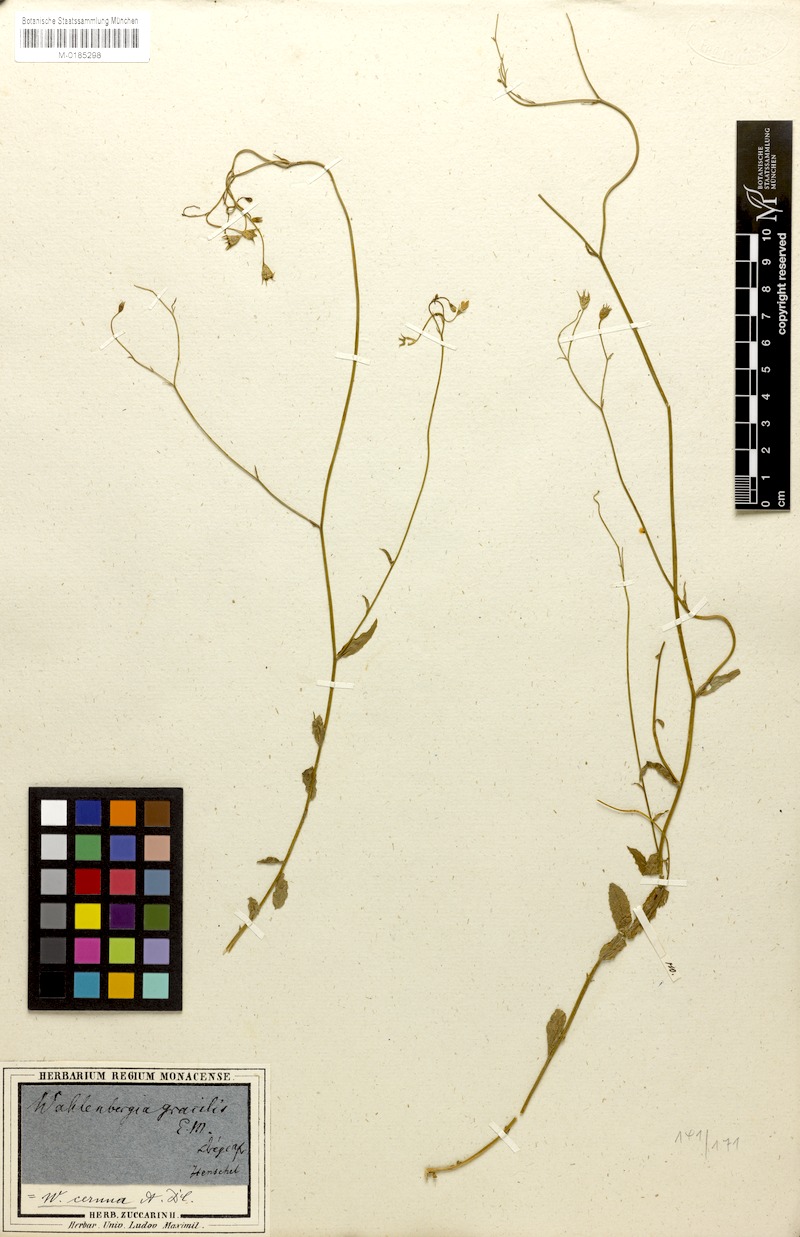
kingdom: Plantae
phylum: Tracheophyta
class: Magnoliopsida
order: Asterales
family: Campanulaceae
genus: Wahlenbergia
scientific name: Wahlenbergia cernua
